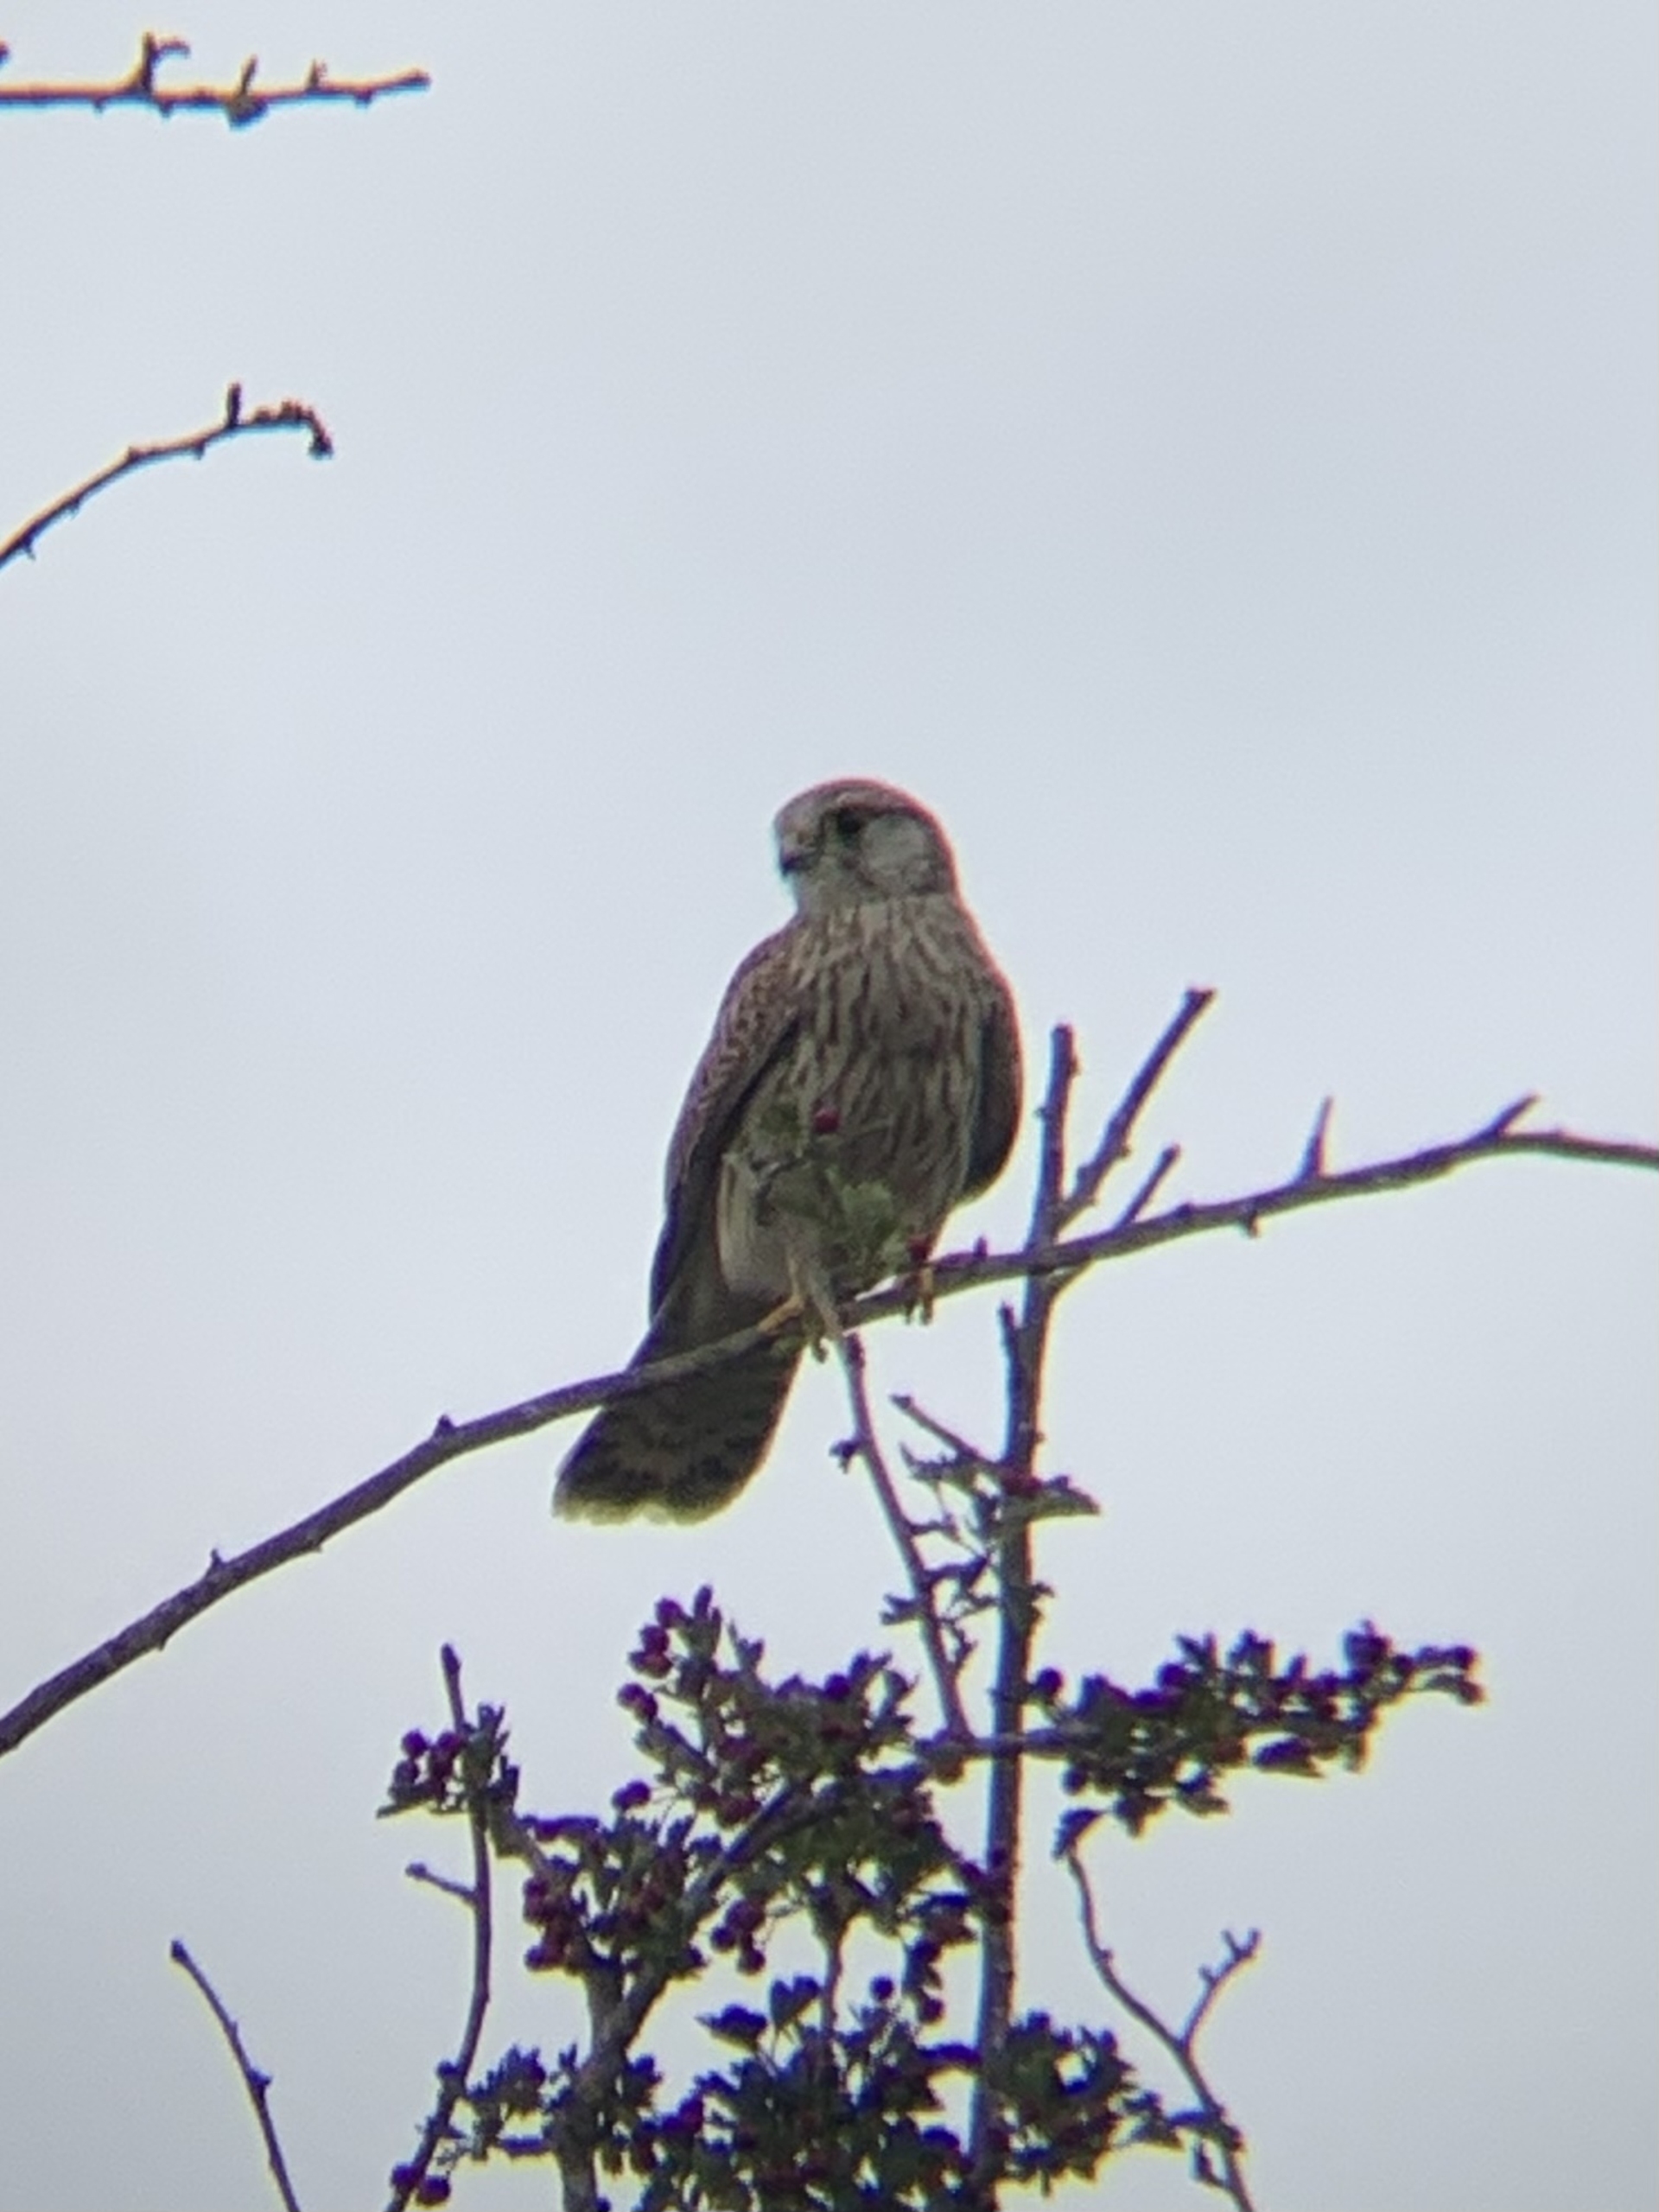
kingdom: Animalia
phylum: Chordata
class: Aves
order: Falconiformes
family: Falconidae
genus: Falco
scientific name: Falco tinnunculus
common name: Tårnfalk
